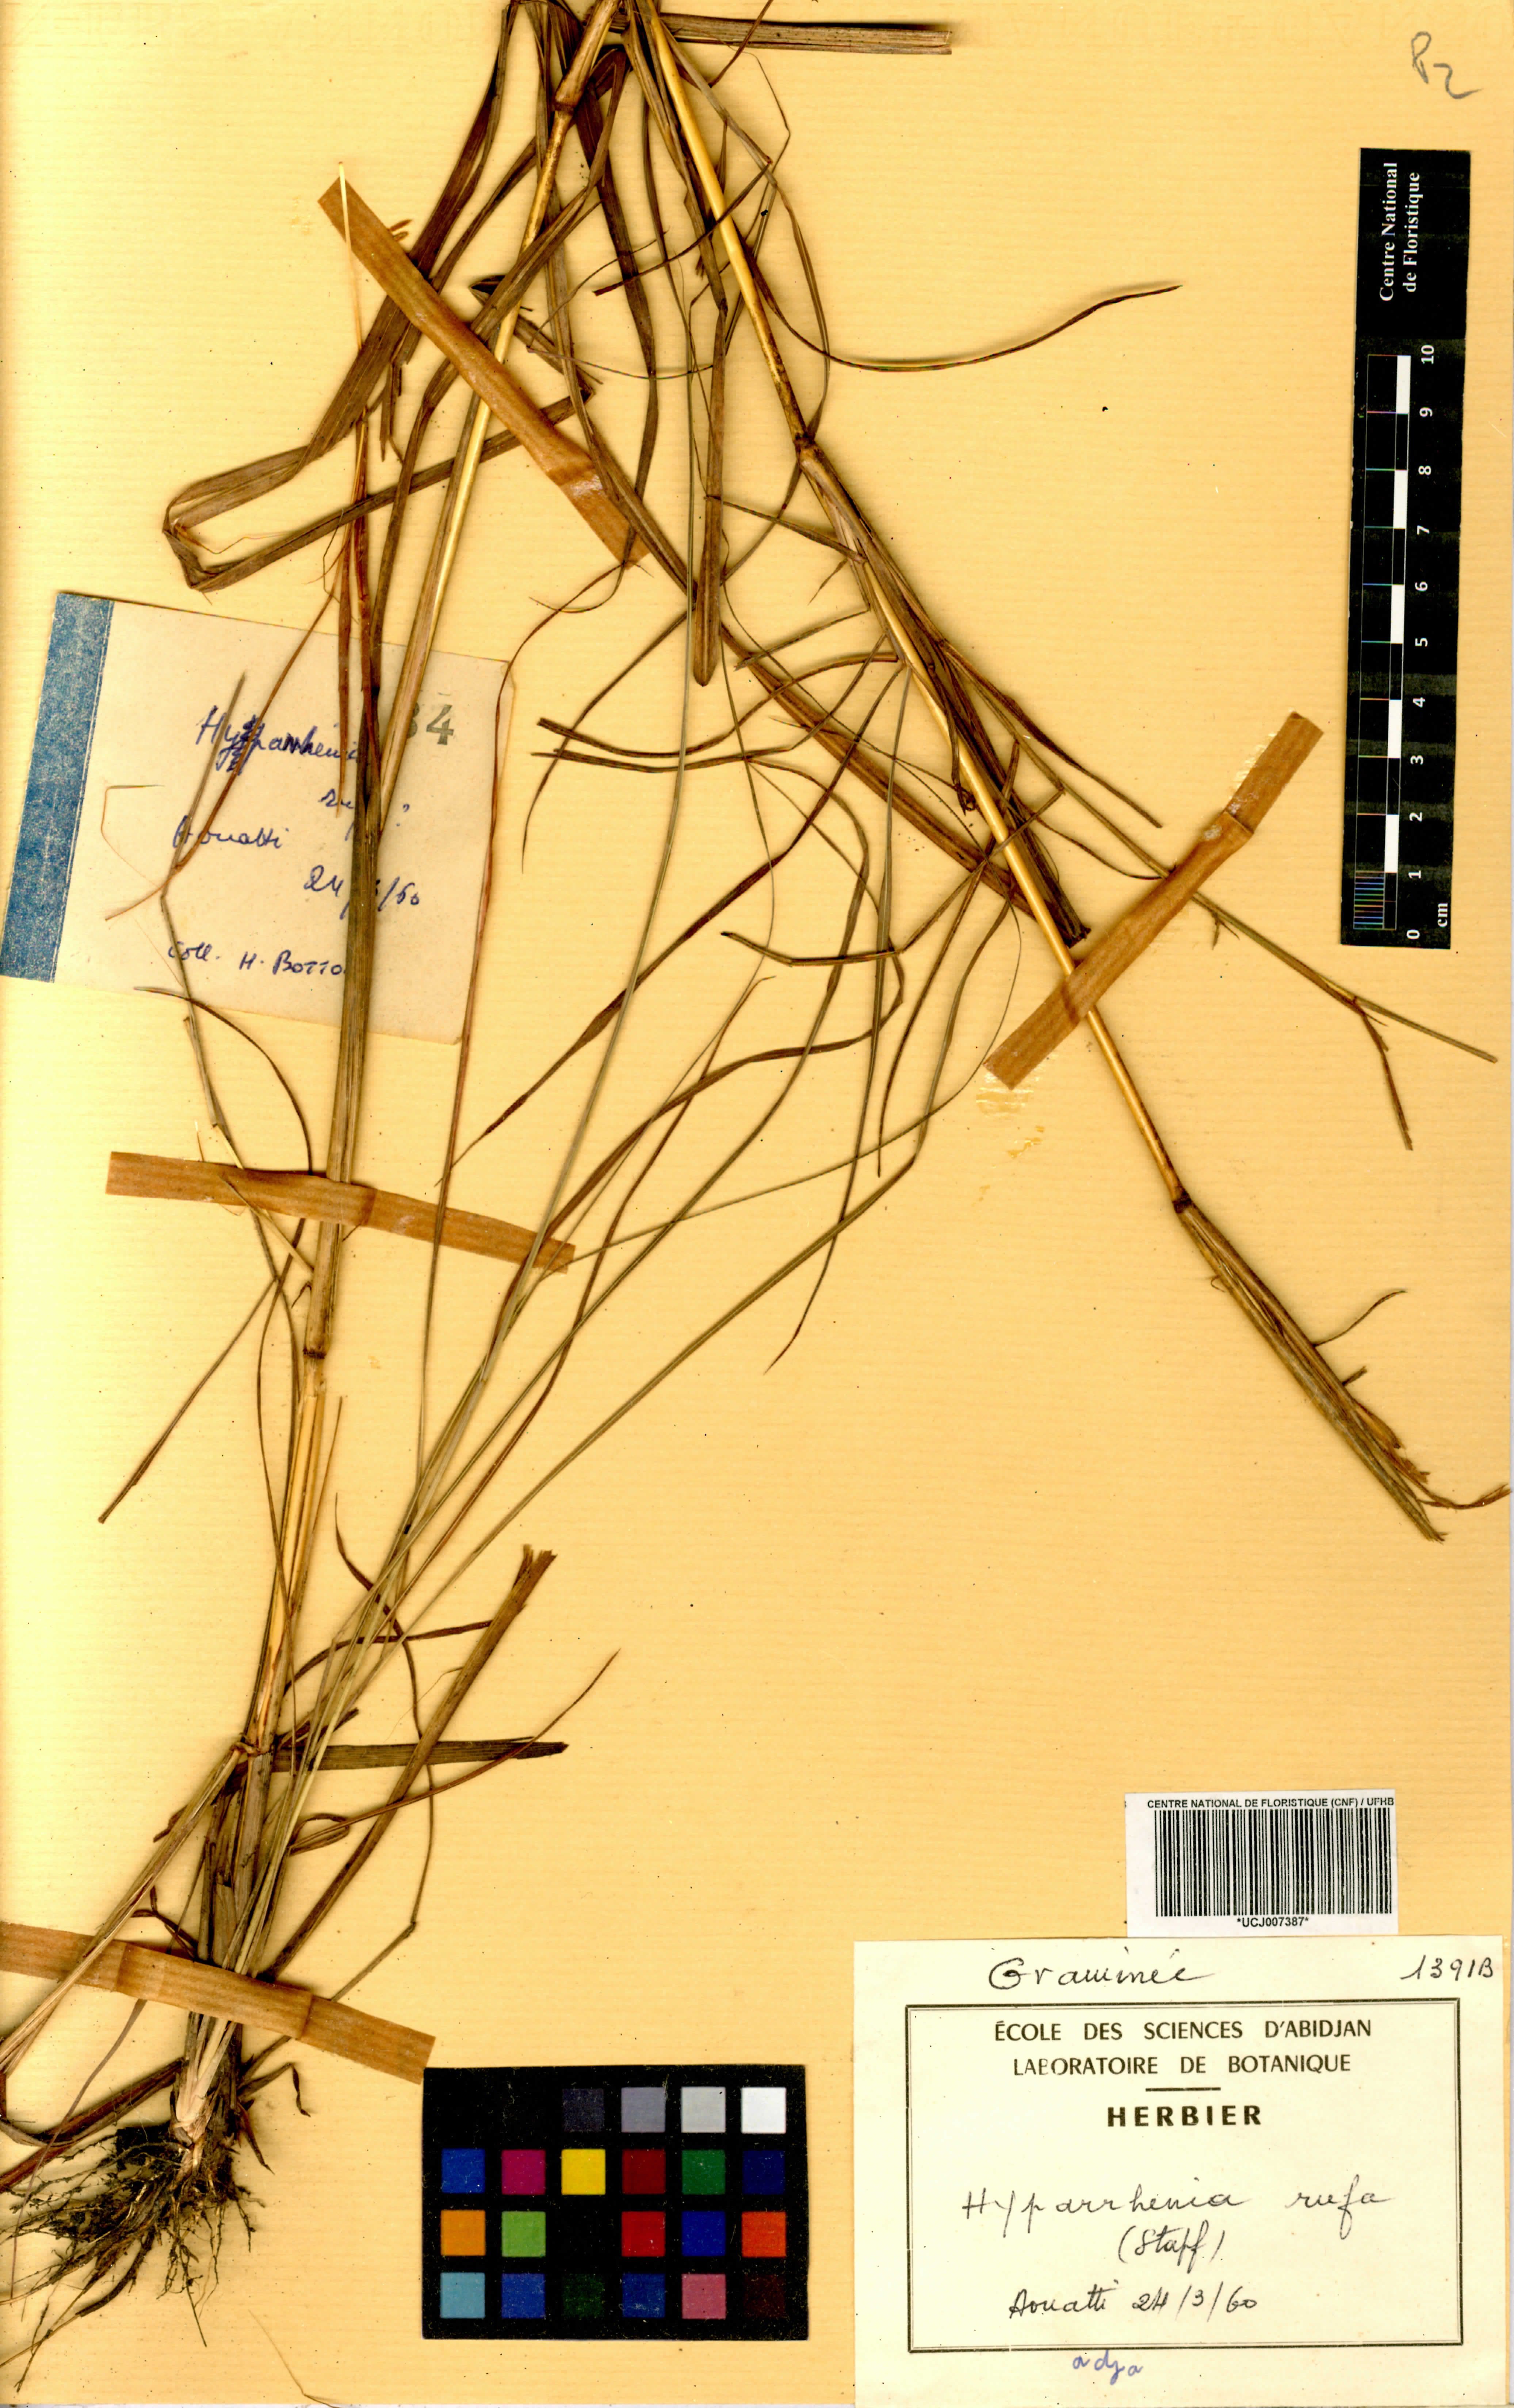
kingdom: Plantae
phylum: Tracheophyta
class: Liliopsida
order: Poales
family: Poaceae
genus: Hyparrhenia
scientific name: Hyparrhenia rufa
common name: Jaraguagrass
